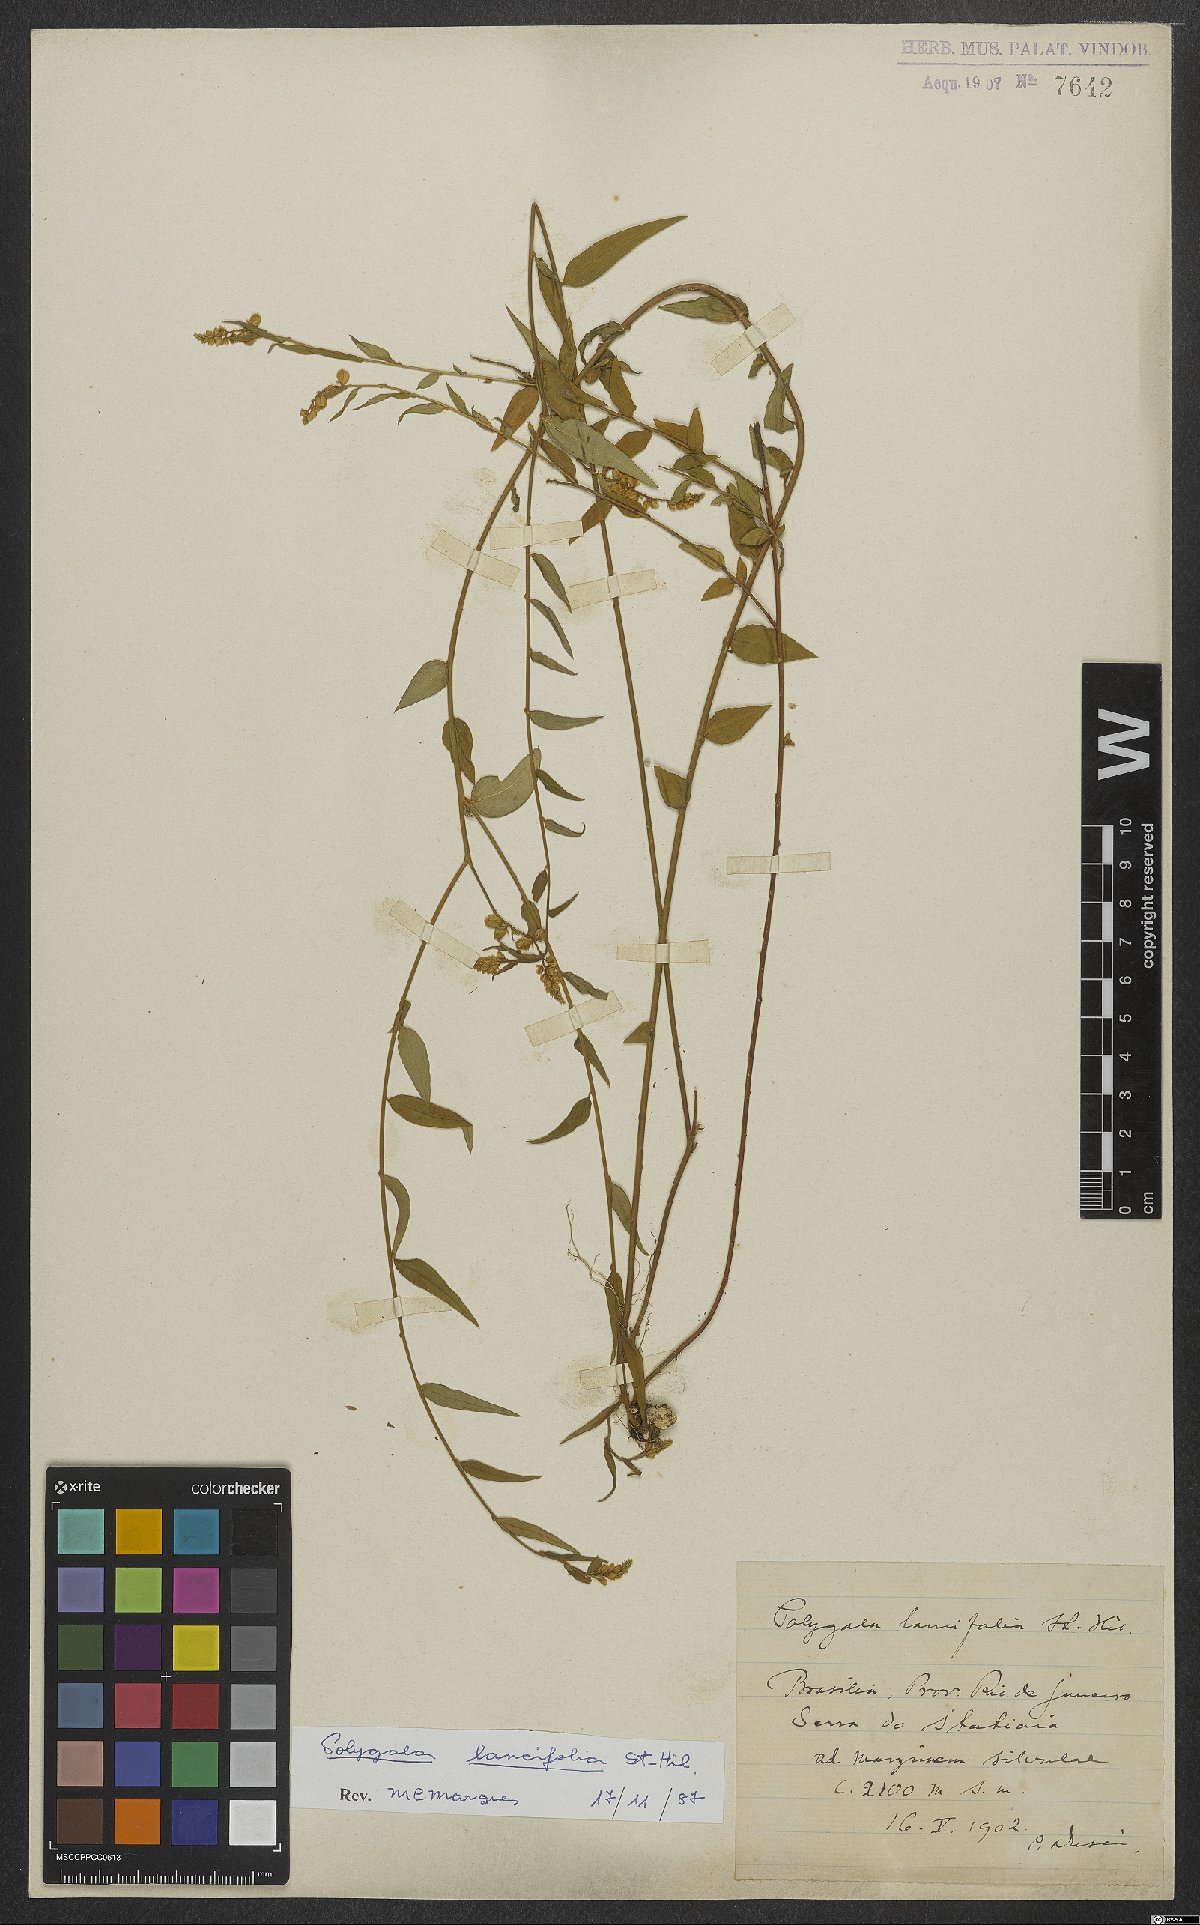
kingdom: Plantae
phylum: Tracheophyta
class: Magnoliopsida
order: Fabales
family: Polygalaceae
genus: Polygala
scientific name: Polygala lancifolia
